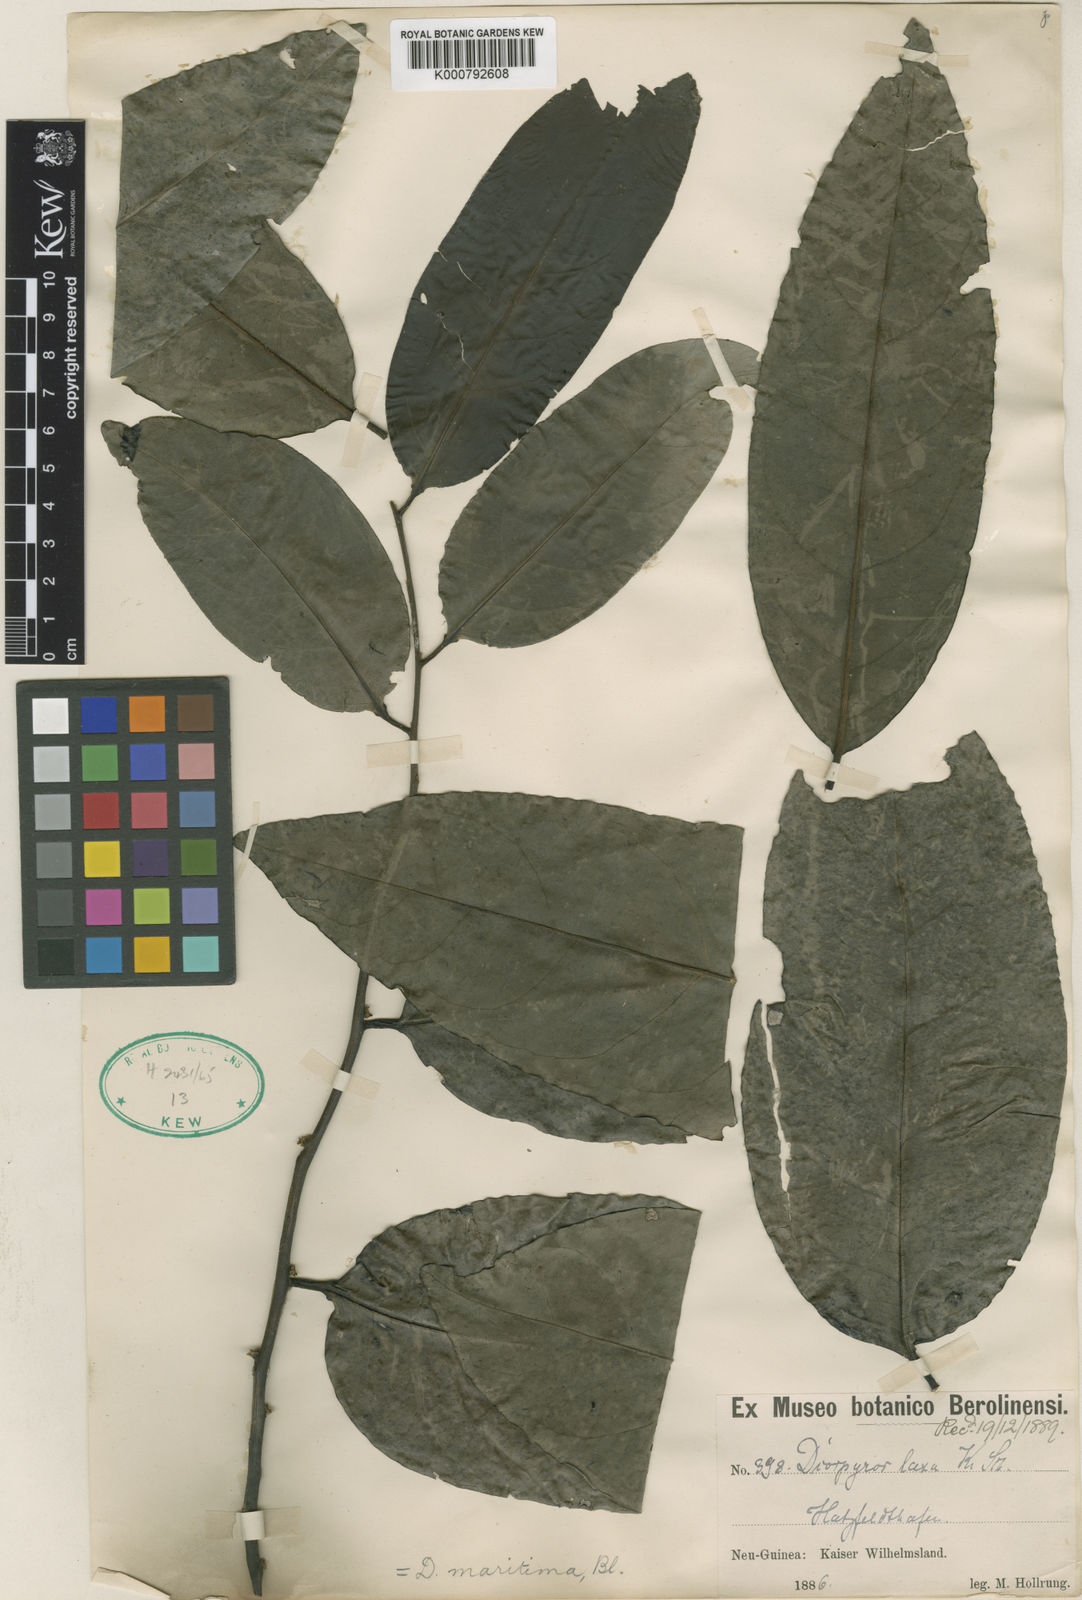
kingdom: Plantae
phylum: Tracheophyta
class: Magnoliopsida
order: Ericales
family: Ebenaceae
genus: Diospyros
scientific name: Diospyros maritima
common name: Malaysian persimmon
